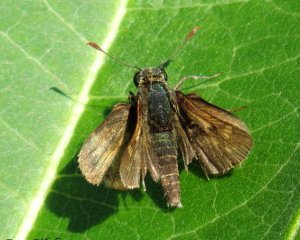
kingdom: Animalia
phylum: Arthropoda
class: Insecta
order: Lepidoptera
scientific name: Lepidoptera
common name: Butterflies
